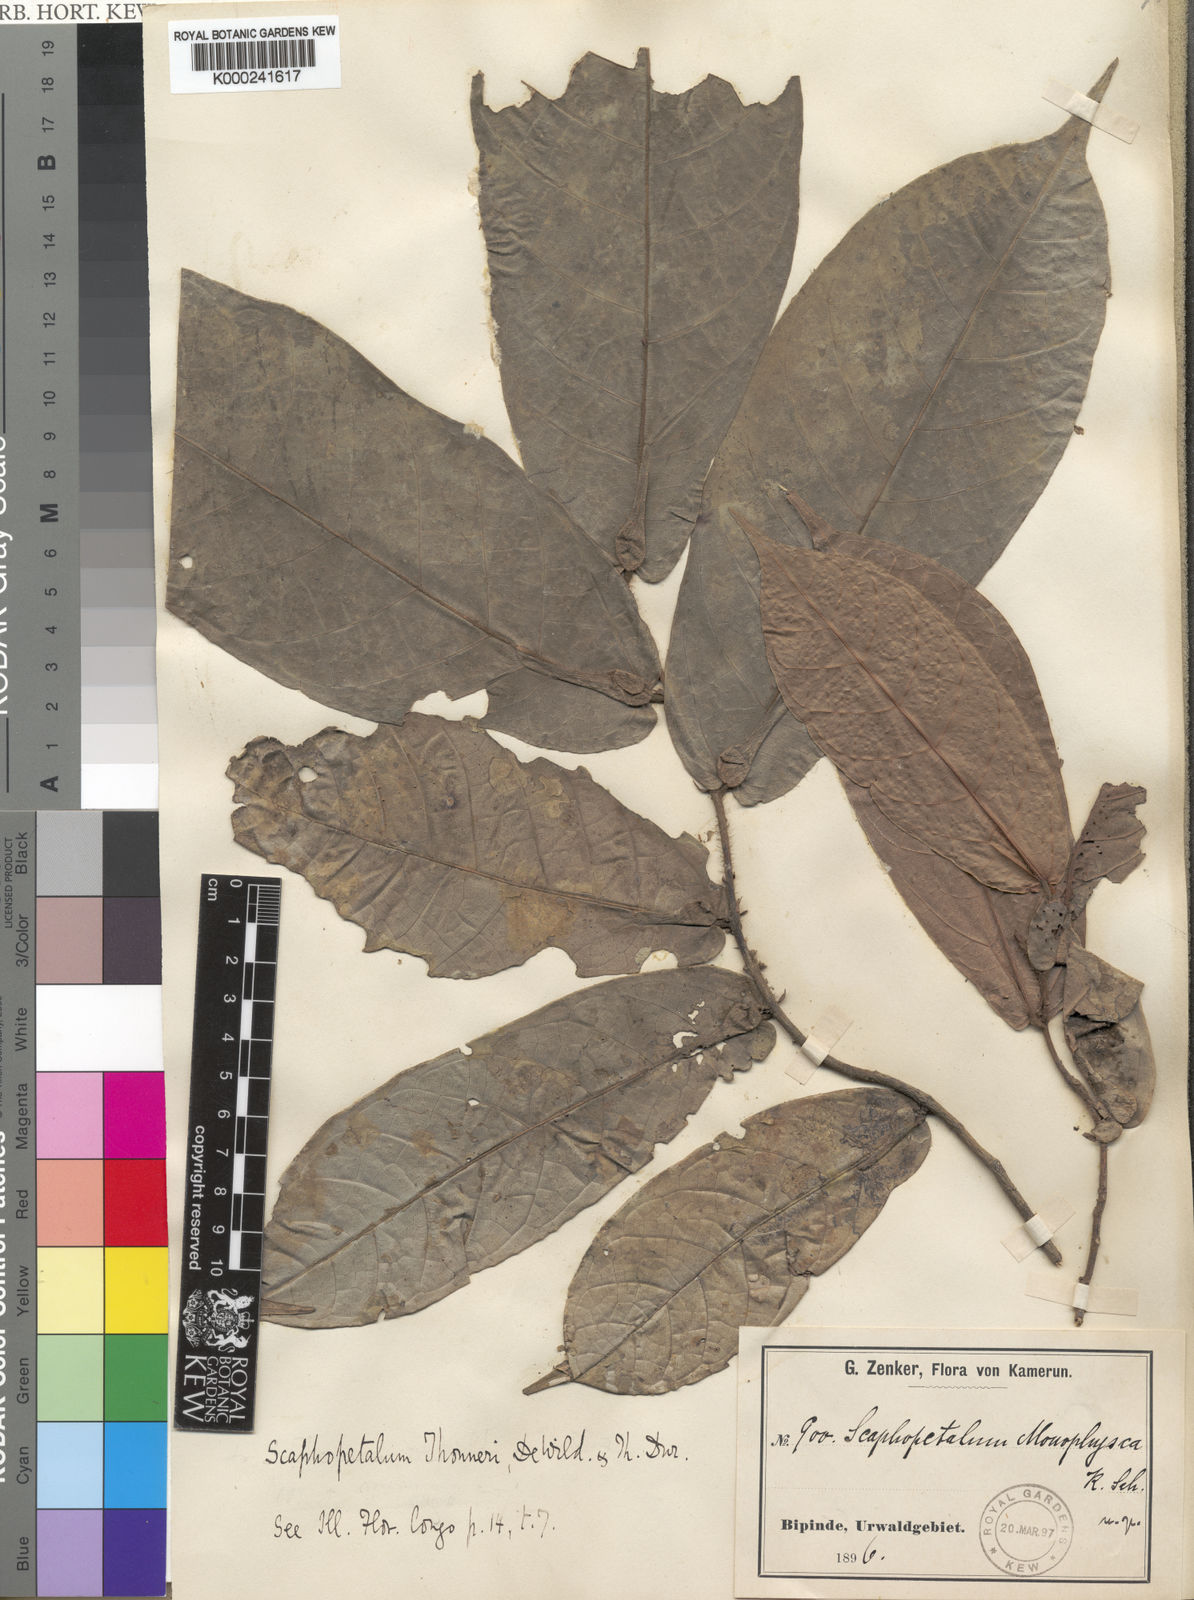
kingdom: Plantae
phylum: Tracheophyta
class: Magnoliopsida
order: Malvales
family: Malvaceae
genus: Scaphopetalum
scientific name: Scaphopetalum thonneri
